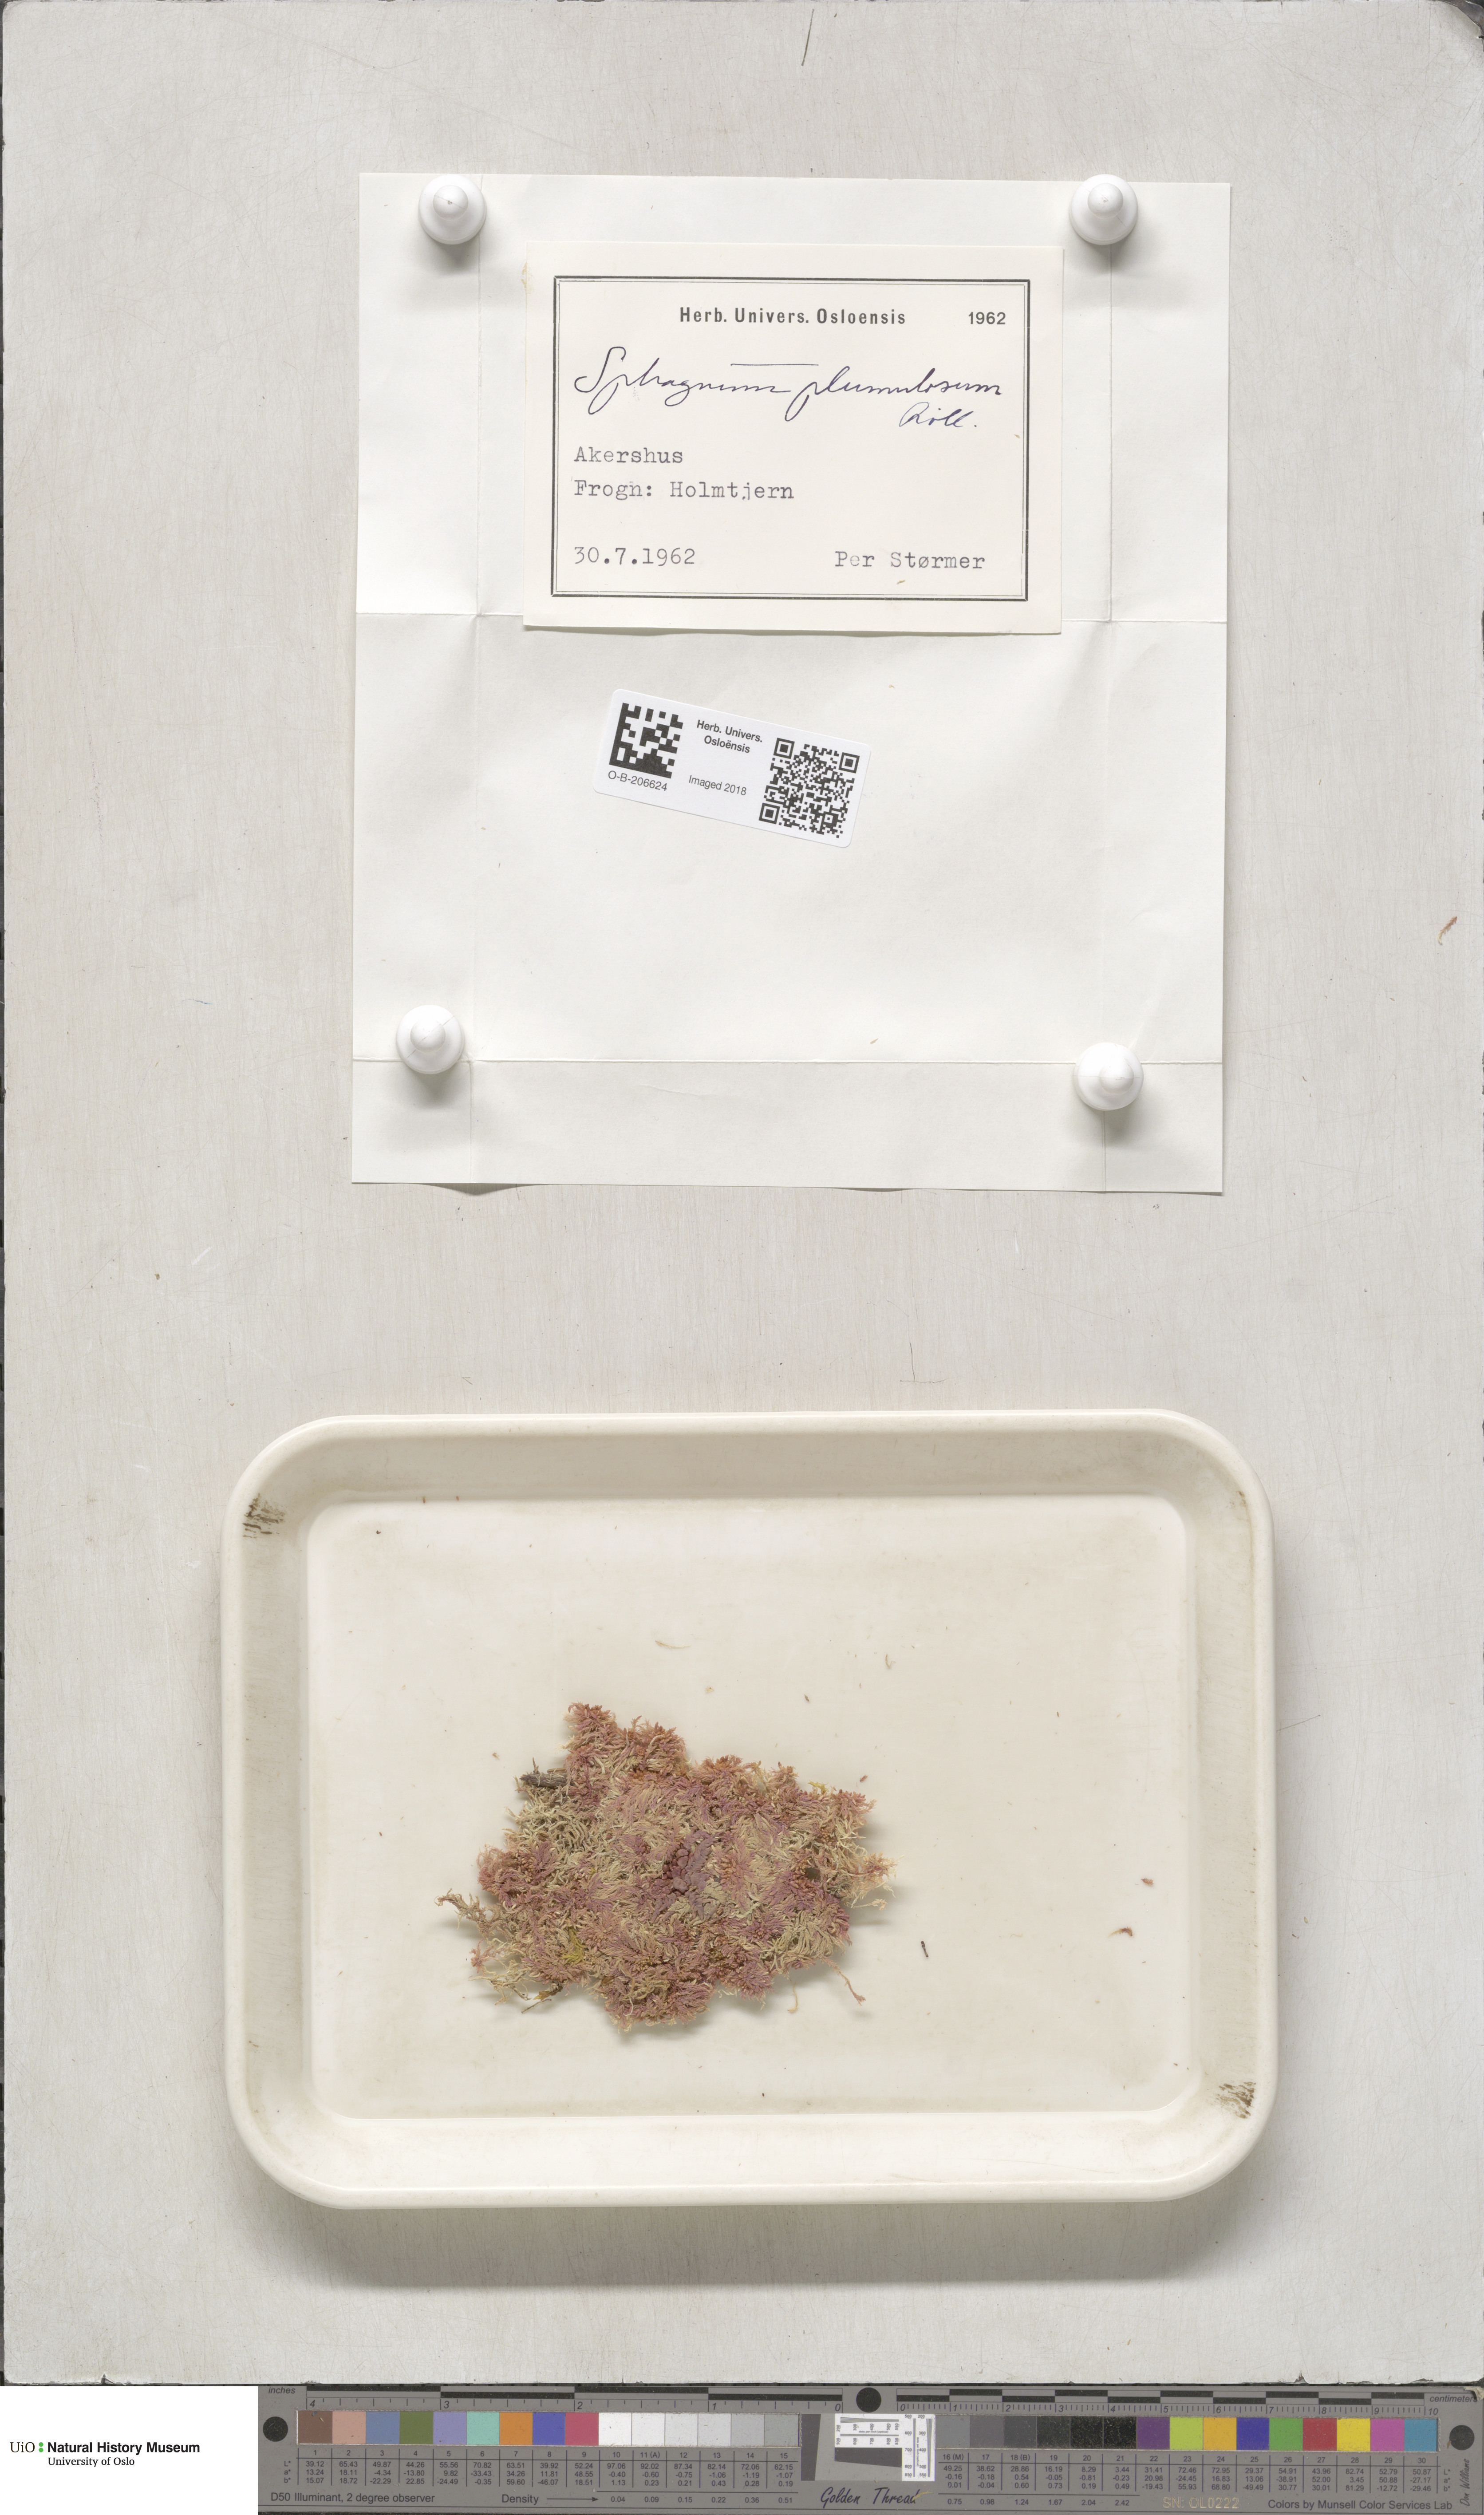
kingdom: Plantae
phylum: Bryophyta
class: Sphagnopsida
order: Sphagnales
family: Sphagnaceae
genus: Sphagnum
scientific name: Sphagnum subnitens
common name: Lustrous bog-moss
